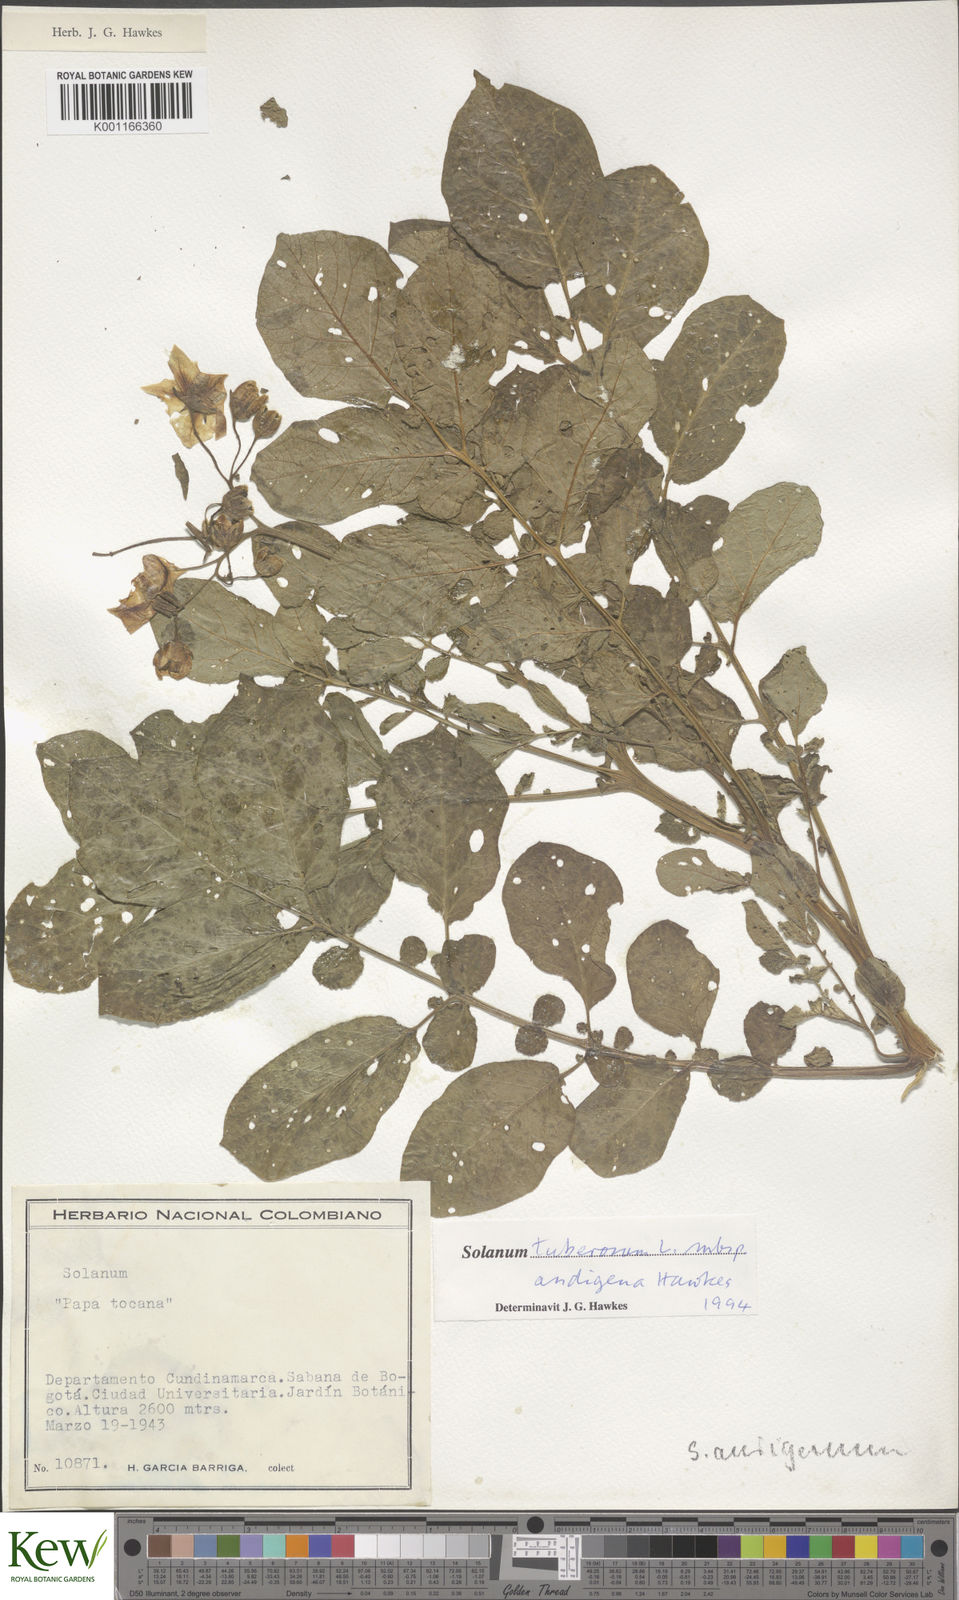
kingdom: Plantae
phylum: Tracheophyta
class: Magnoliopsida
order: Solanales
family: Solanaceae
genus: Solanum
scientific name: Solanum tuberosum
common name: Potato
